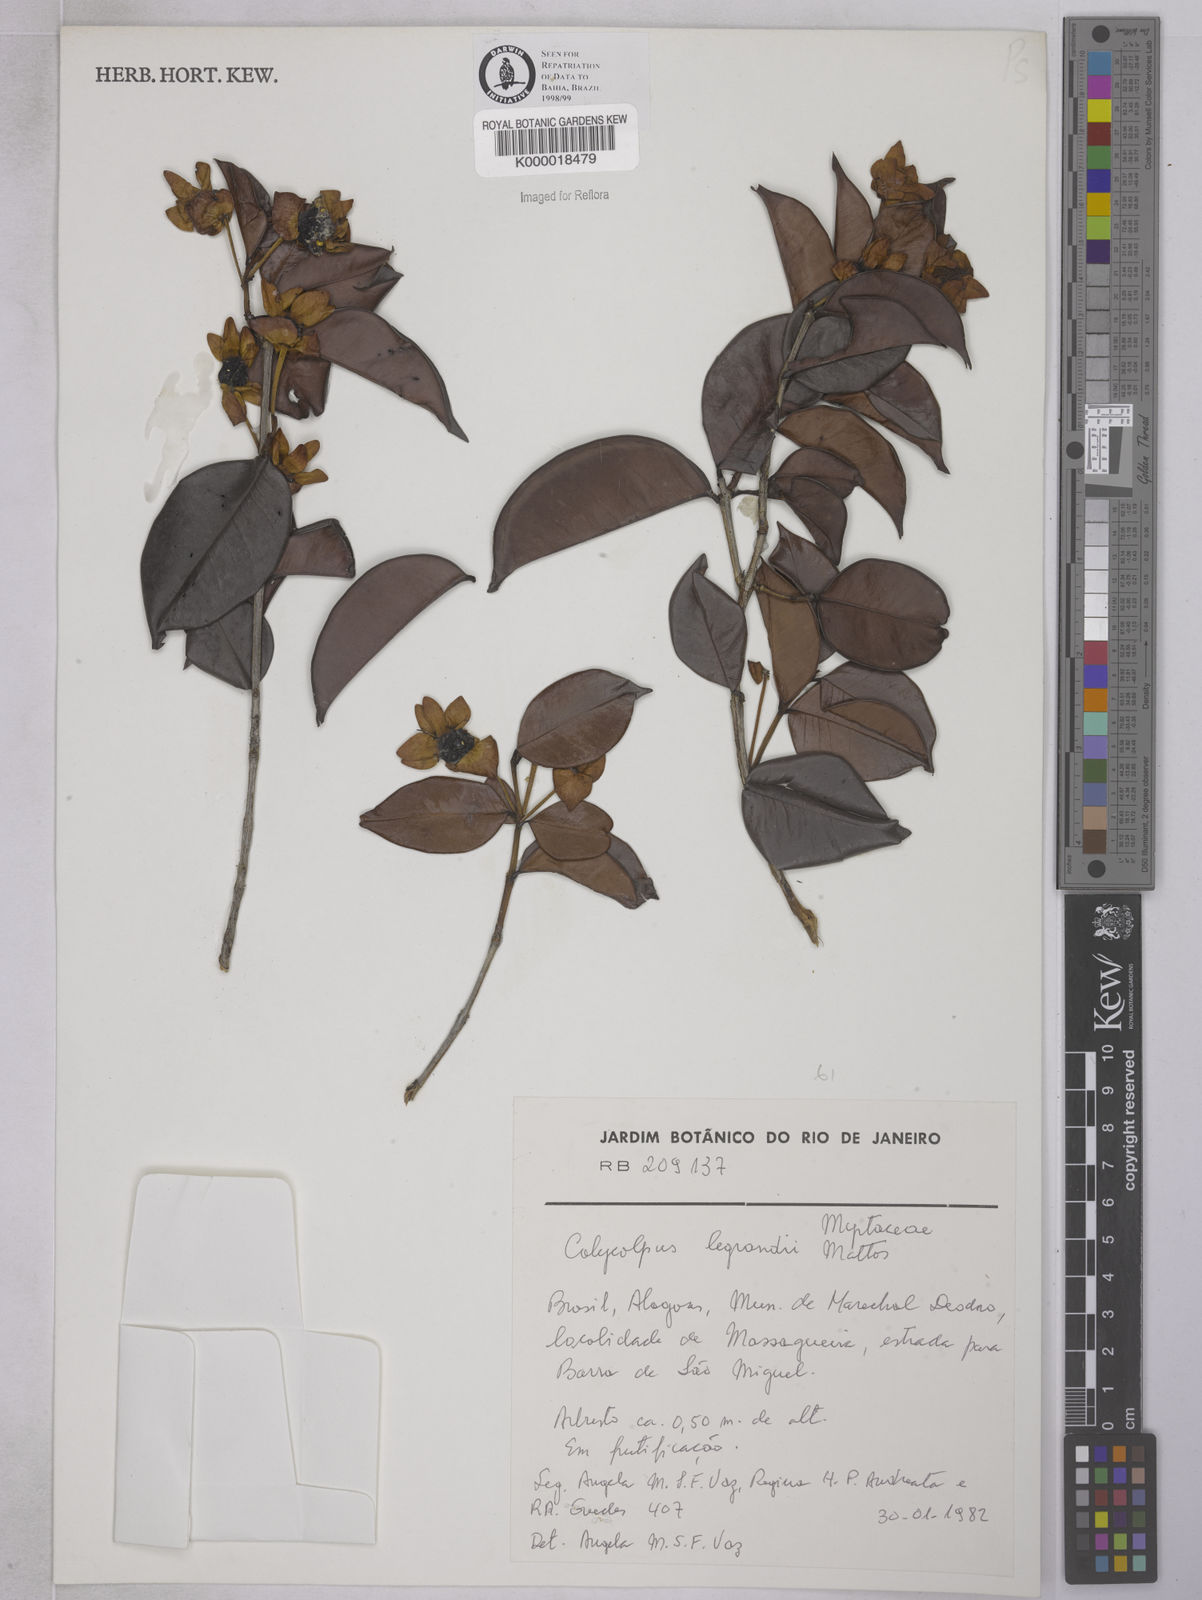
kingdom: Plantae
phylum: Tracheophyta
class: Magnoliopsida
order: Myrtales
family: Myrtaceae
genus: Calycolpus
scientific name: Calycolpus legrandii
